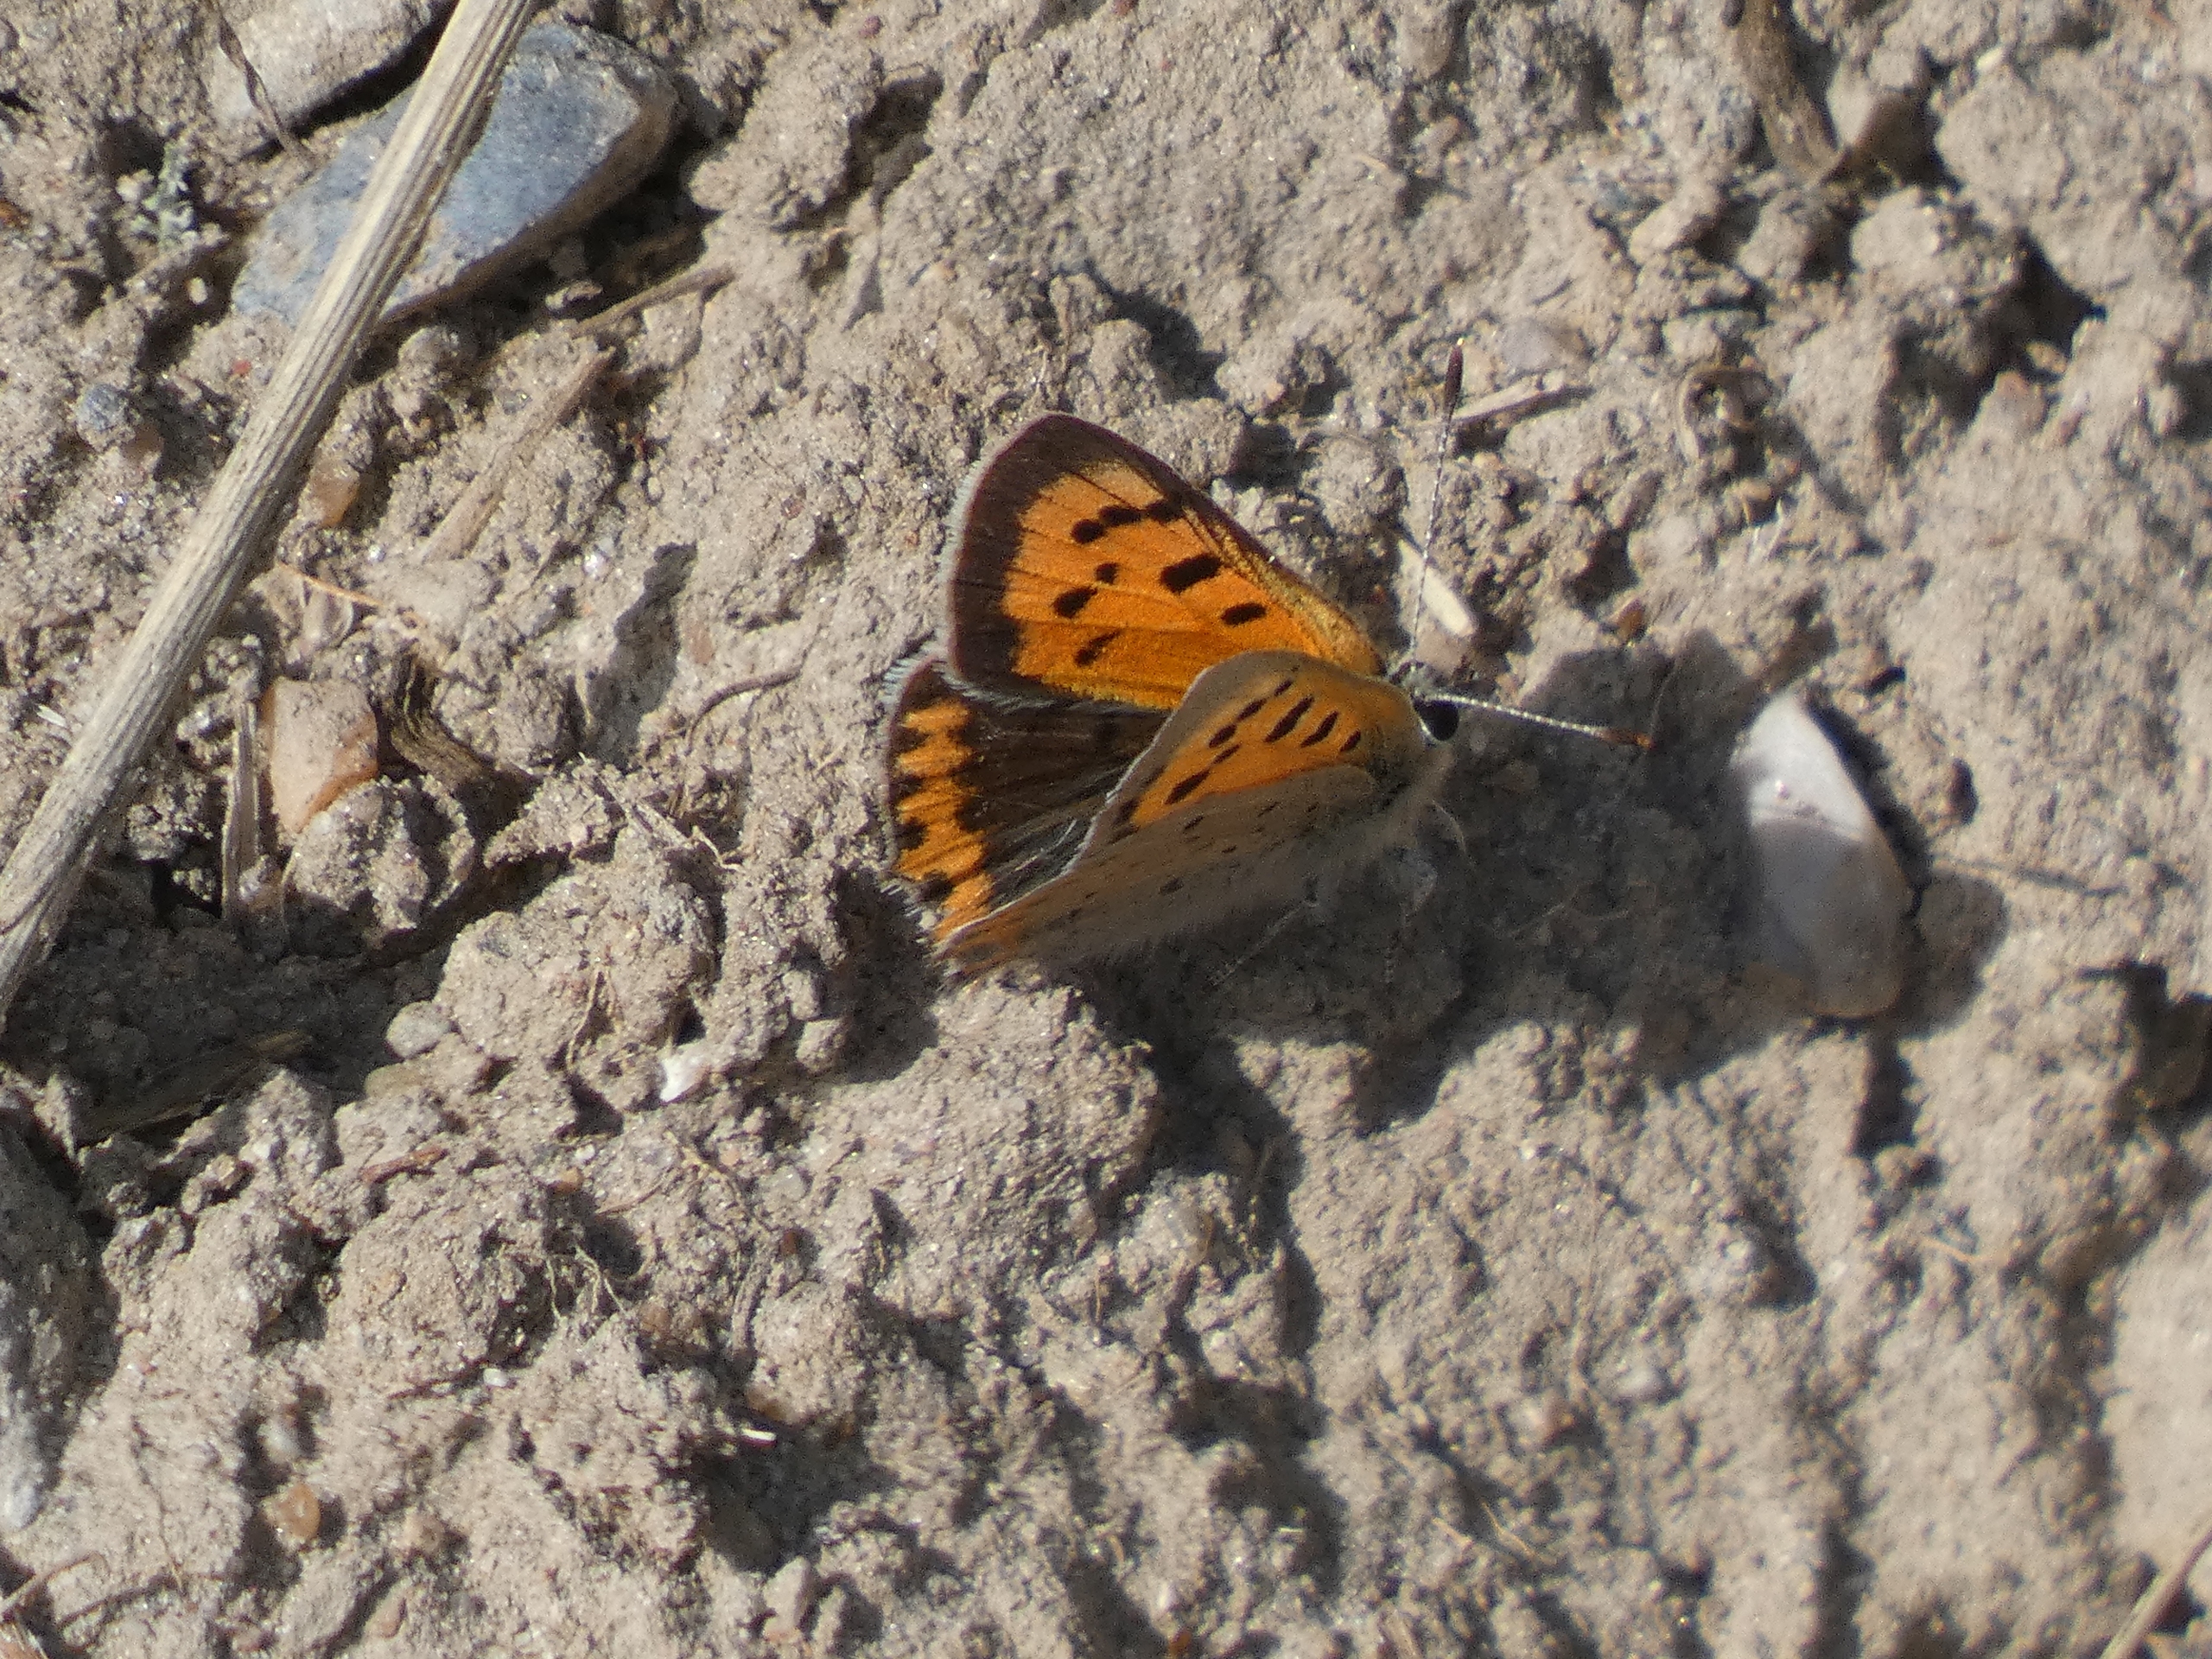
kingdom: Animalia
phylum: Arthropoda
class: Insecta
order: Lepidoptera
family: Lycaenidae
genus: Lycaena
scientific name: Lycaena phlaeas
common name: Lille ildfugl
